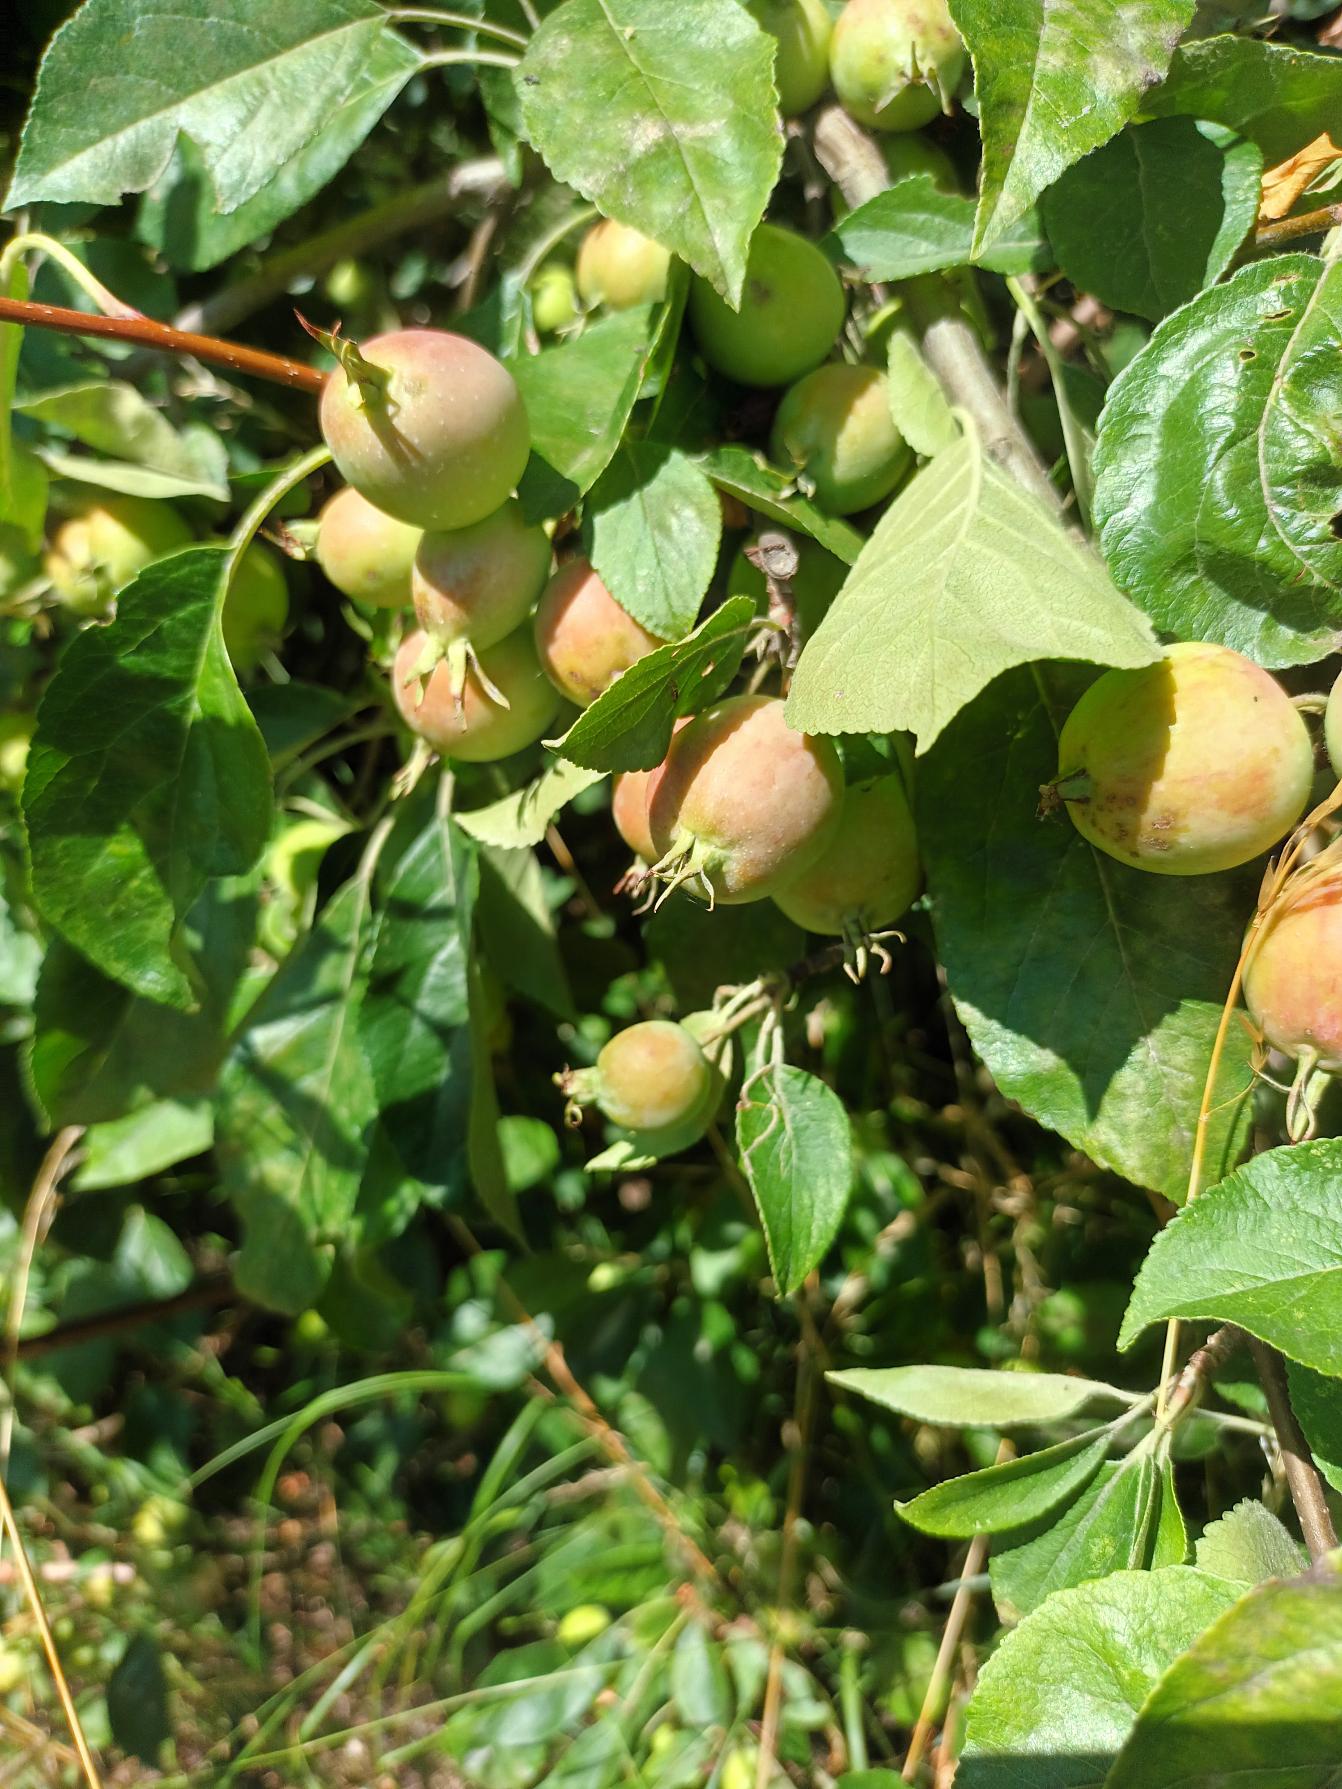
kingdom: Plantae
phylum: Tracheophyta
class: Magnoliopsida
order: Rosales
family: Rosaceae
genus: Malus
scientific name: Malus prunifolia
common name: Sibirisk æble
